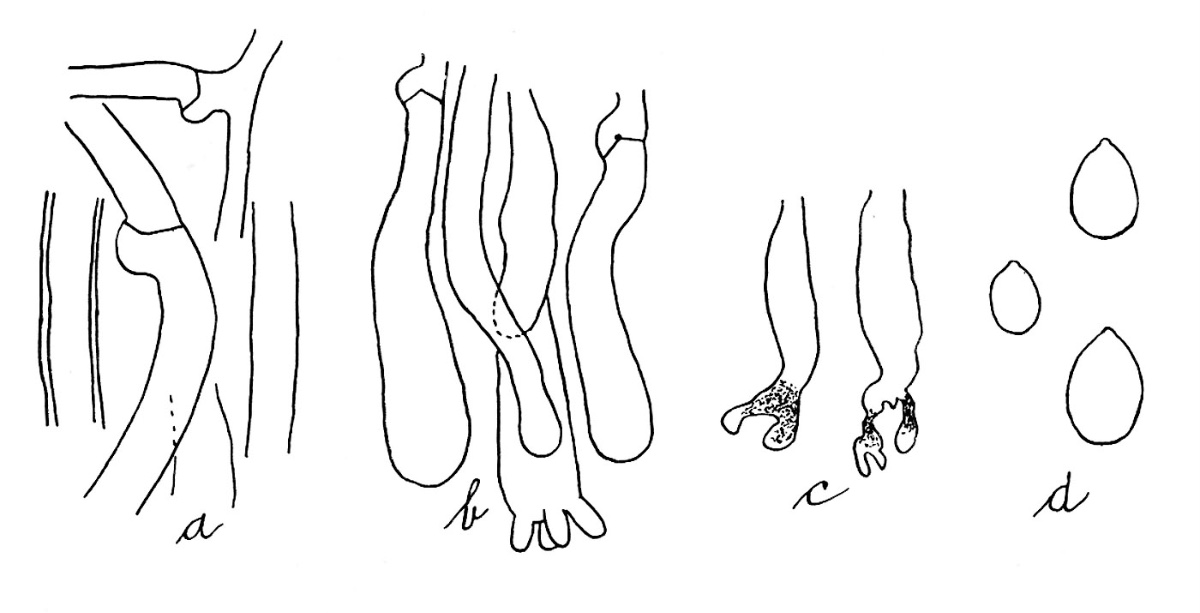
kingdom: Fungi
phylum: Basidiomycota
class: Agaricomycetes
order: Polyporales
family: Phanerochaetaceae
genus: Terana
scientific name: Terana caerulea
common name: indigoskorpe
